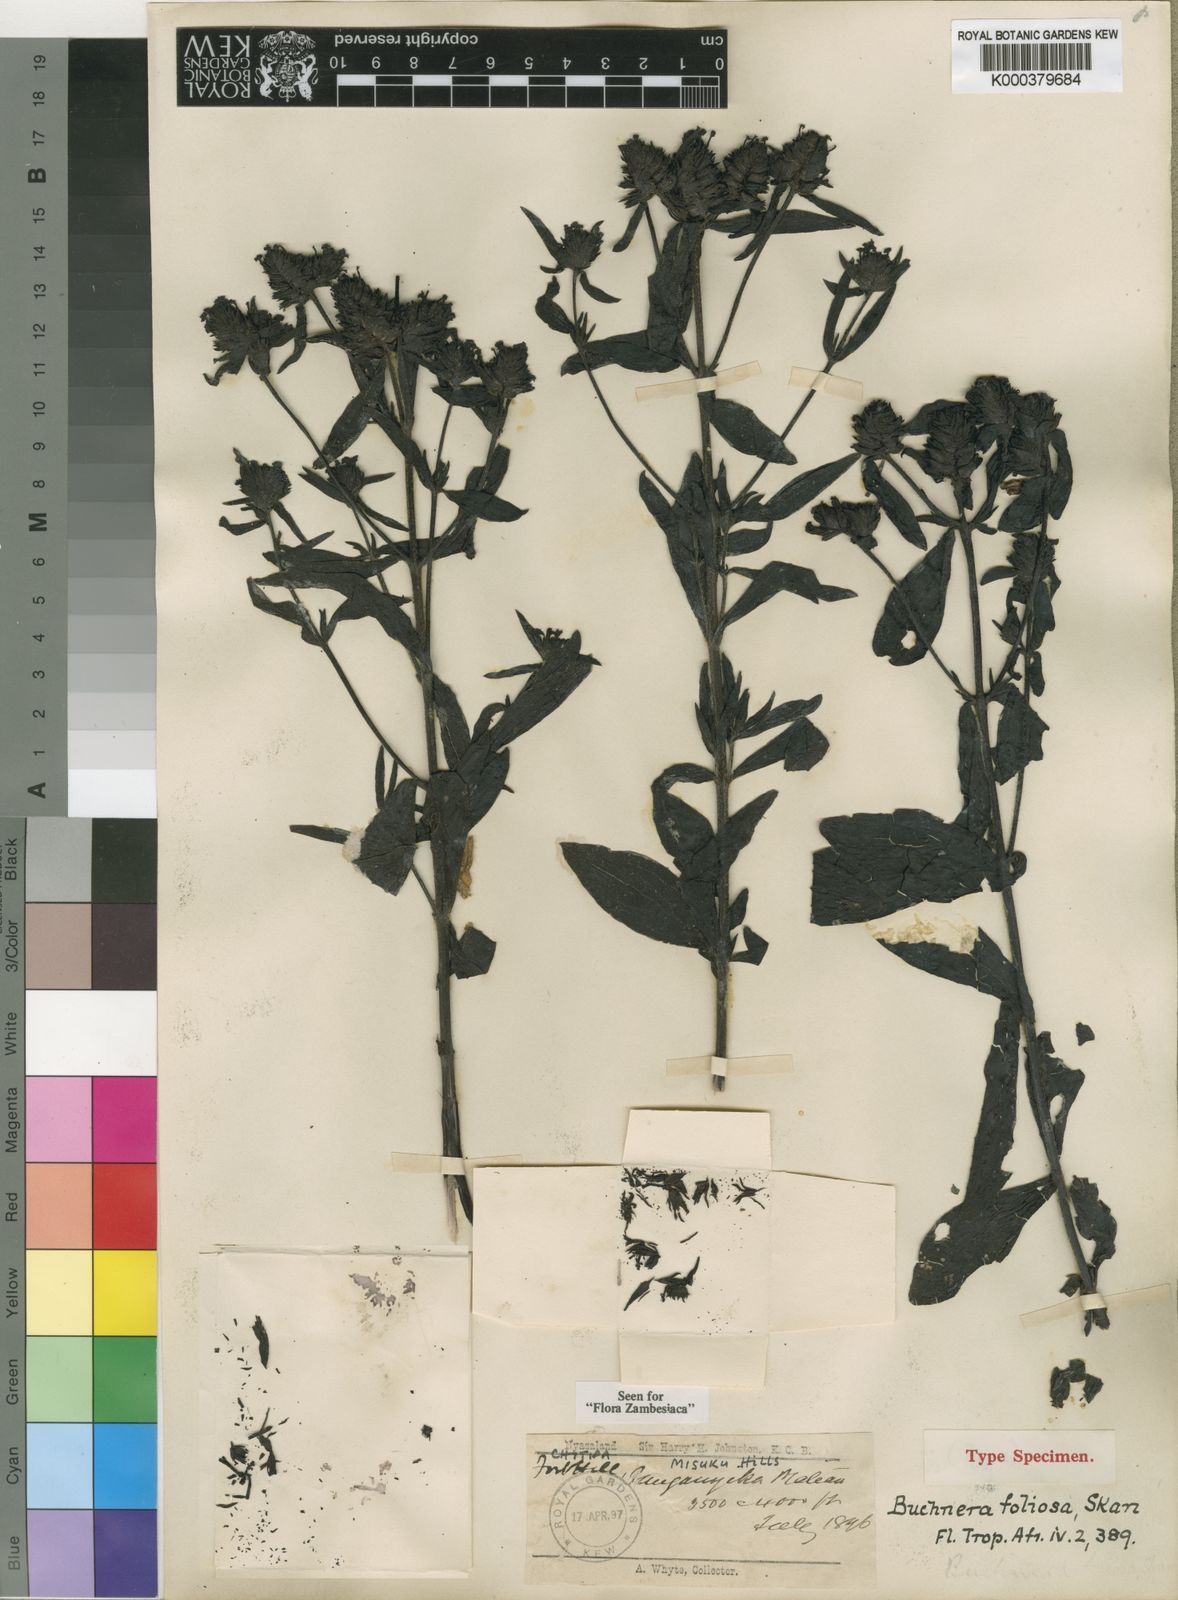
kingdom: Plantae
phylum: Tracheophyta
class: Magnoliopsida
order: Lamiales
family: Orobanchaceae
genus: Buchnera
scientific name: Buchnera foliosa
